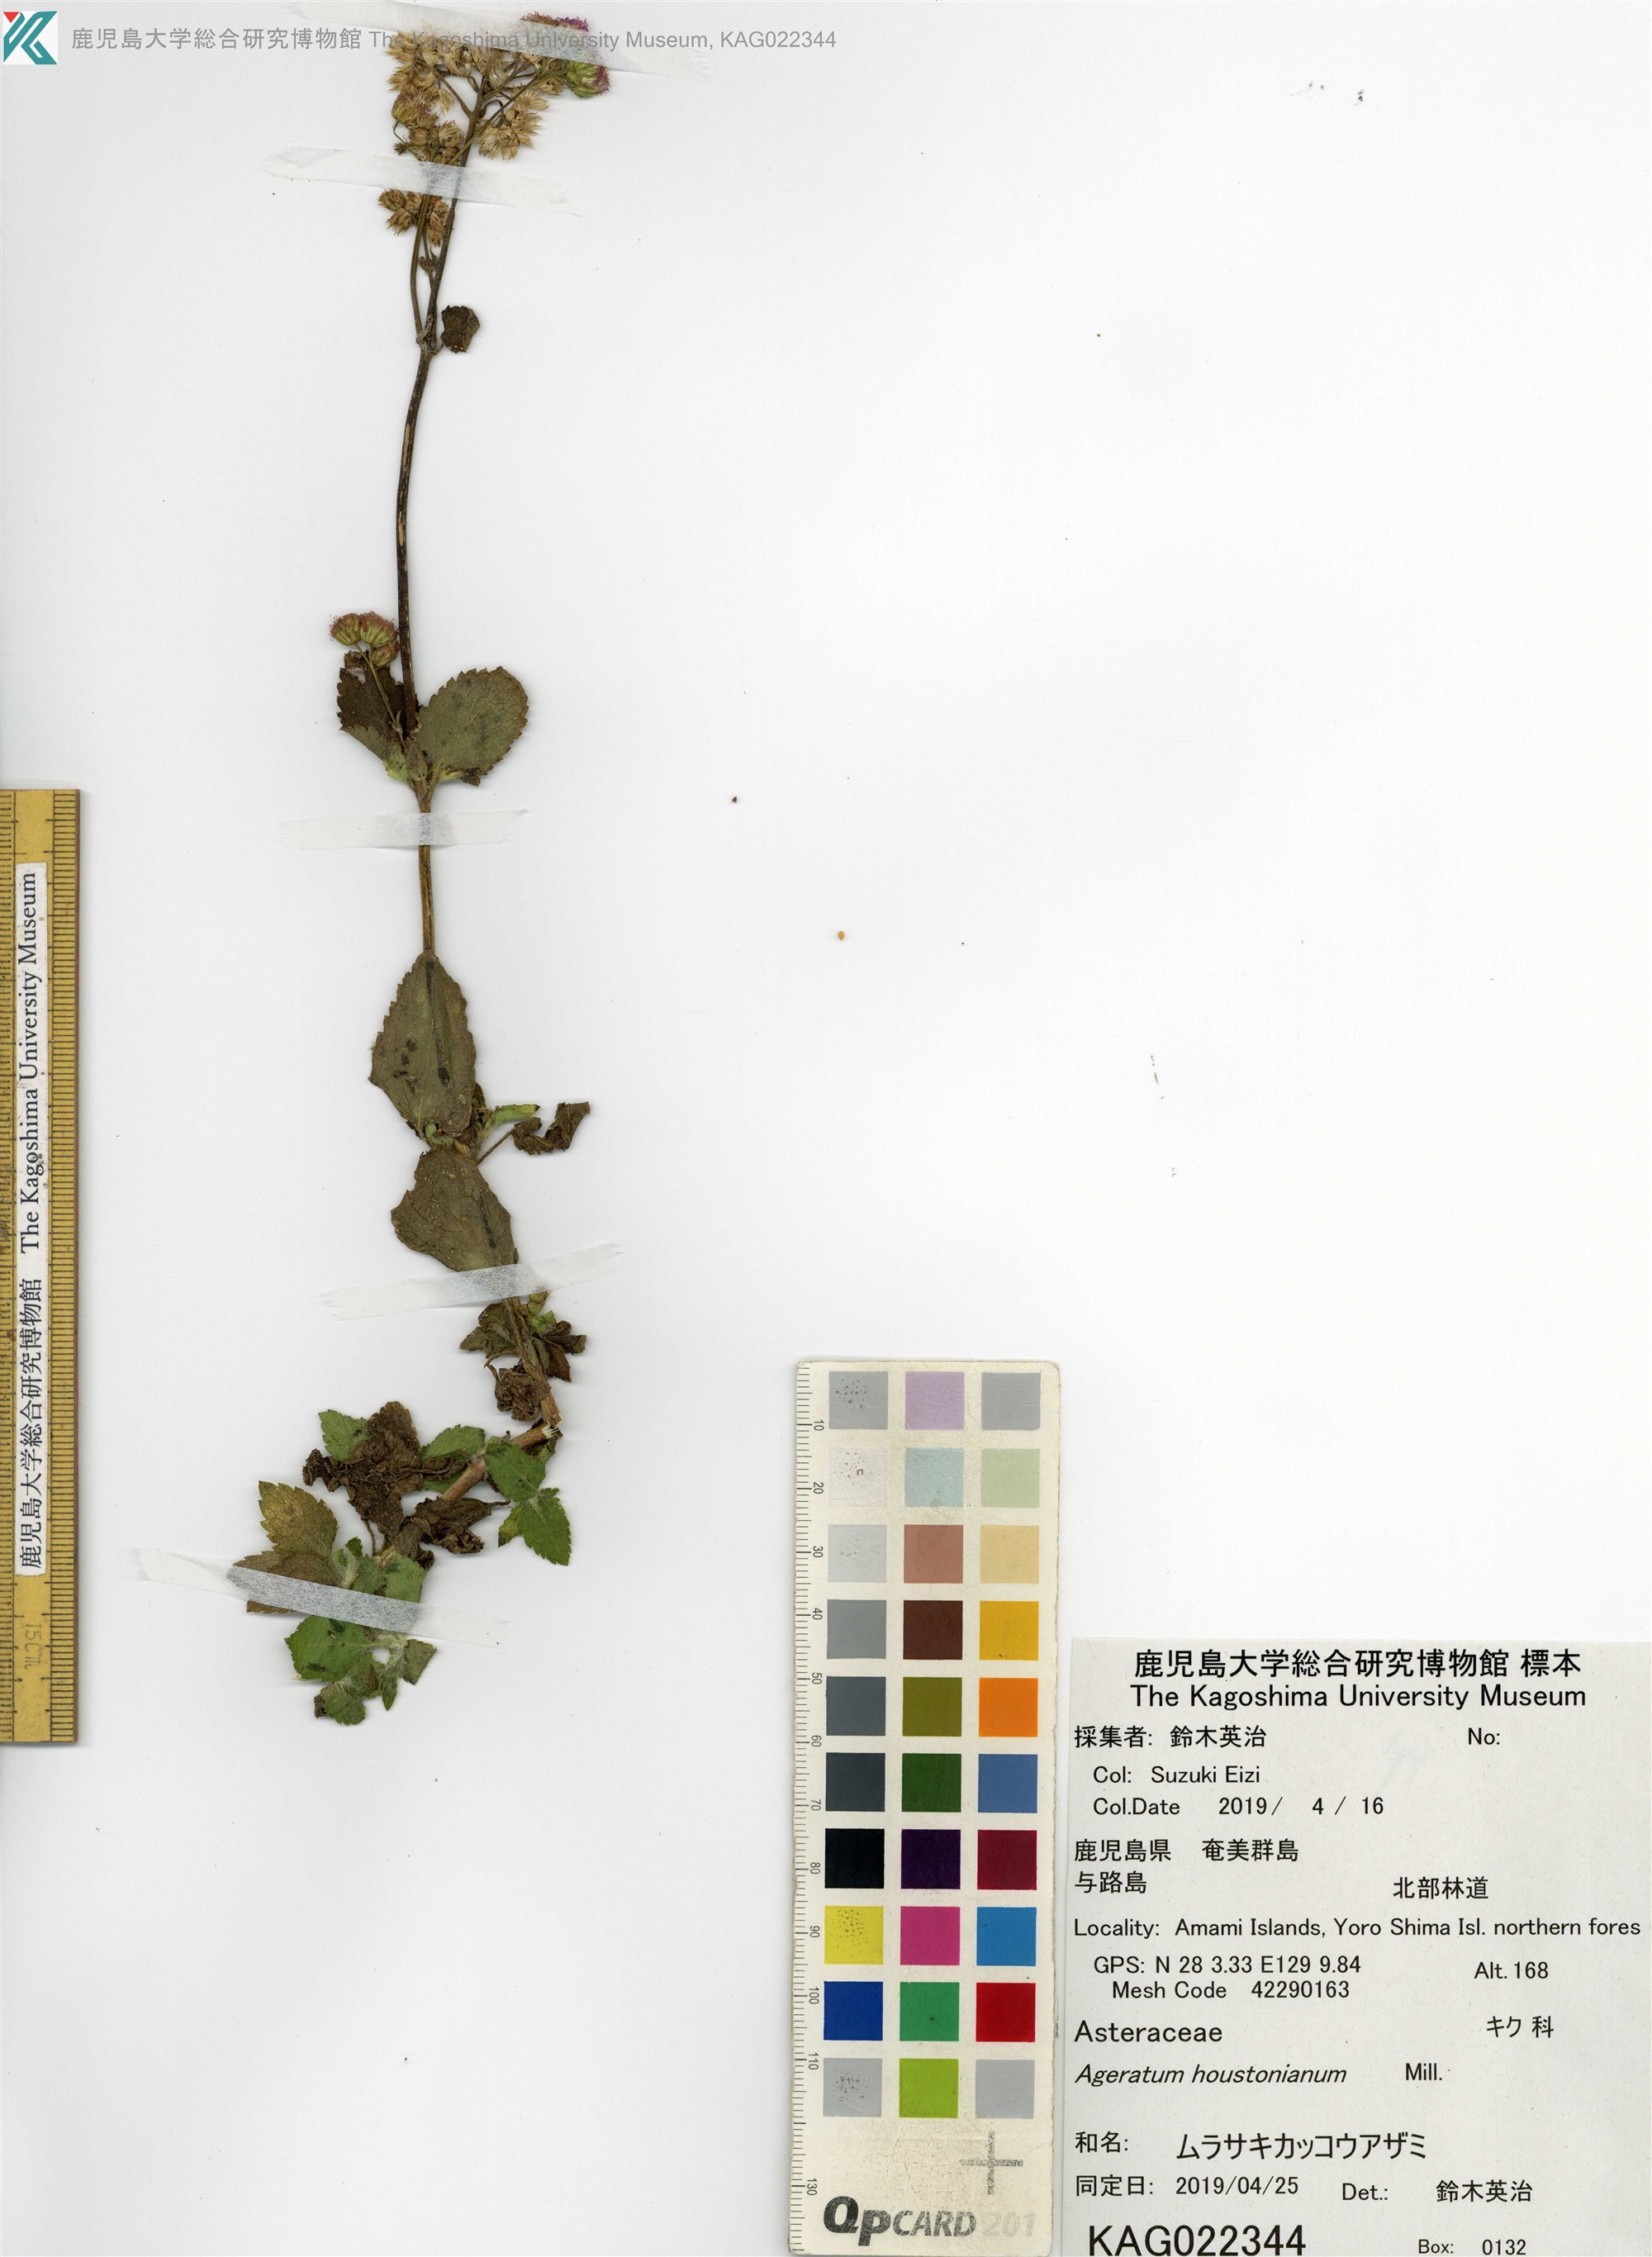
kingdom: Plantae
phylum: Tracheophyta
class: Magnoliopsida
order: Asterales
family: Asteraceae
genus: Ageratum
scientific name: Ageratum houstonianum
